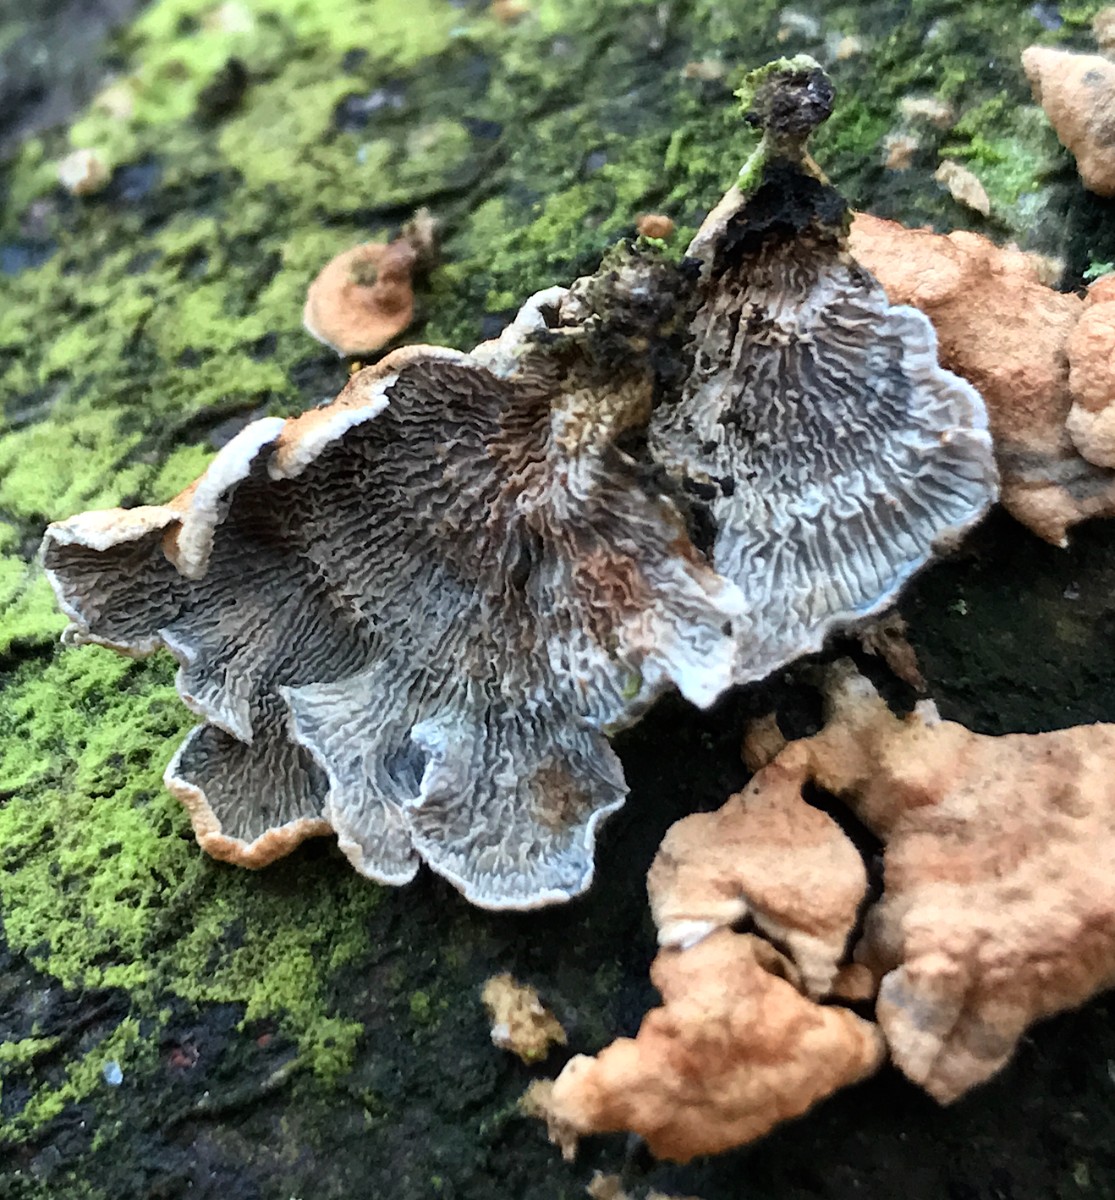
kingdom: Fungi
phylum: Basidiomycota
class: Agaricomycetes
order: Amylocorticiales
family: Amylocorticiaceae
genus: Plicaturopsis
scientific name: Plicaturopsis crispa
